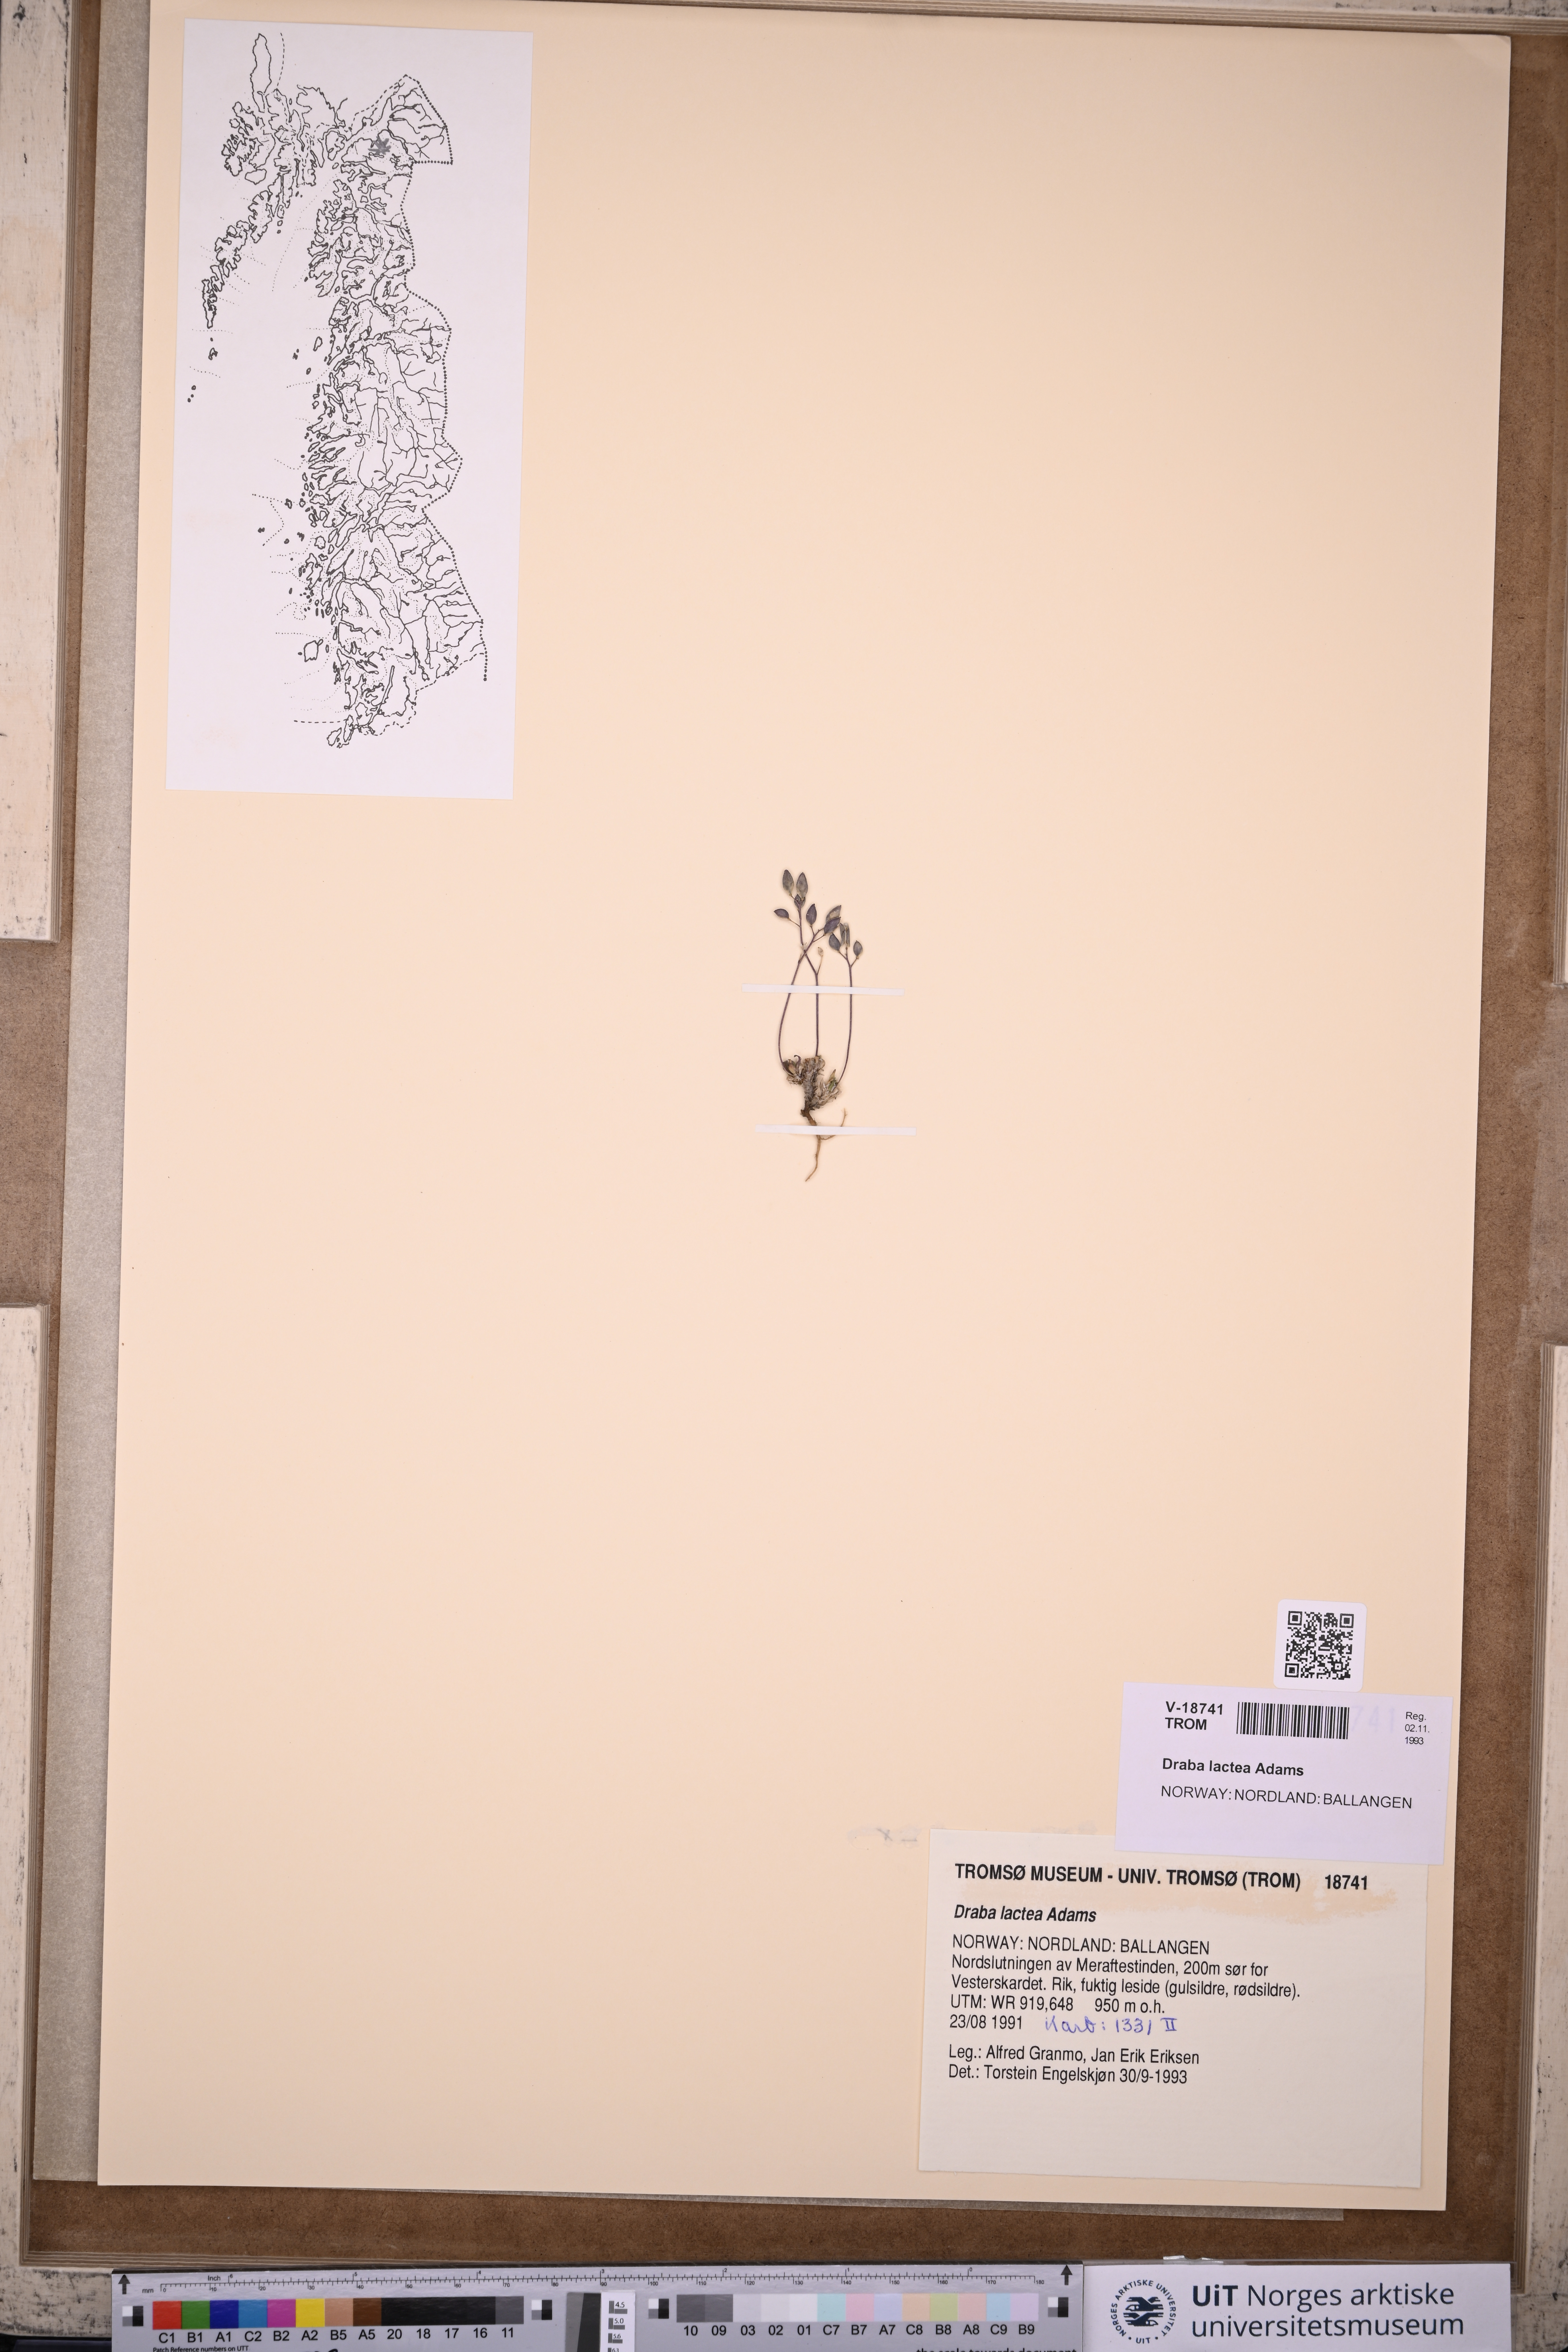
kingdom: Plantae
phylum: Tracheophyta
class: Magnoliopsida
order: Brassicales
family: Brassicaceae
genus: Draba
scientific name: Draba lactea
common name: Milky draba
